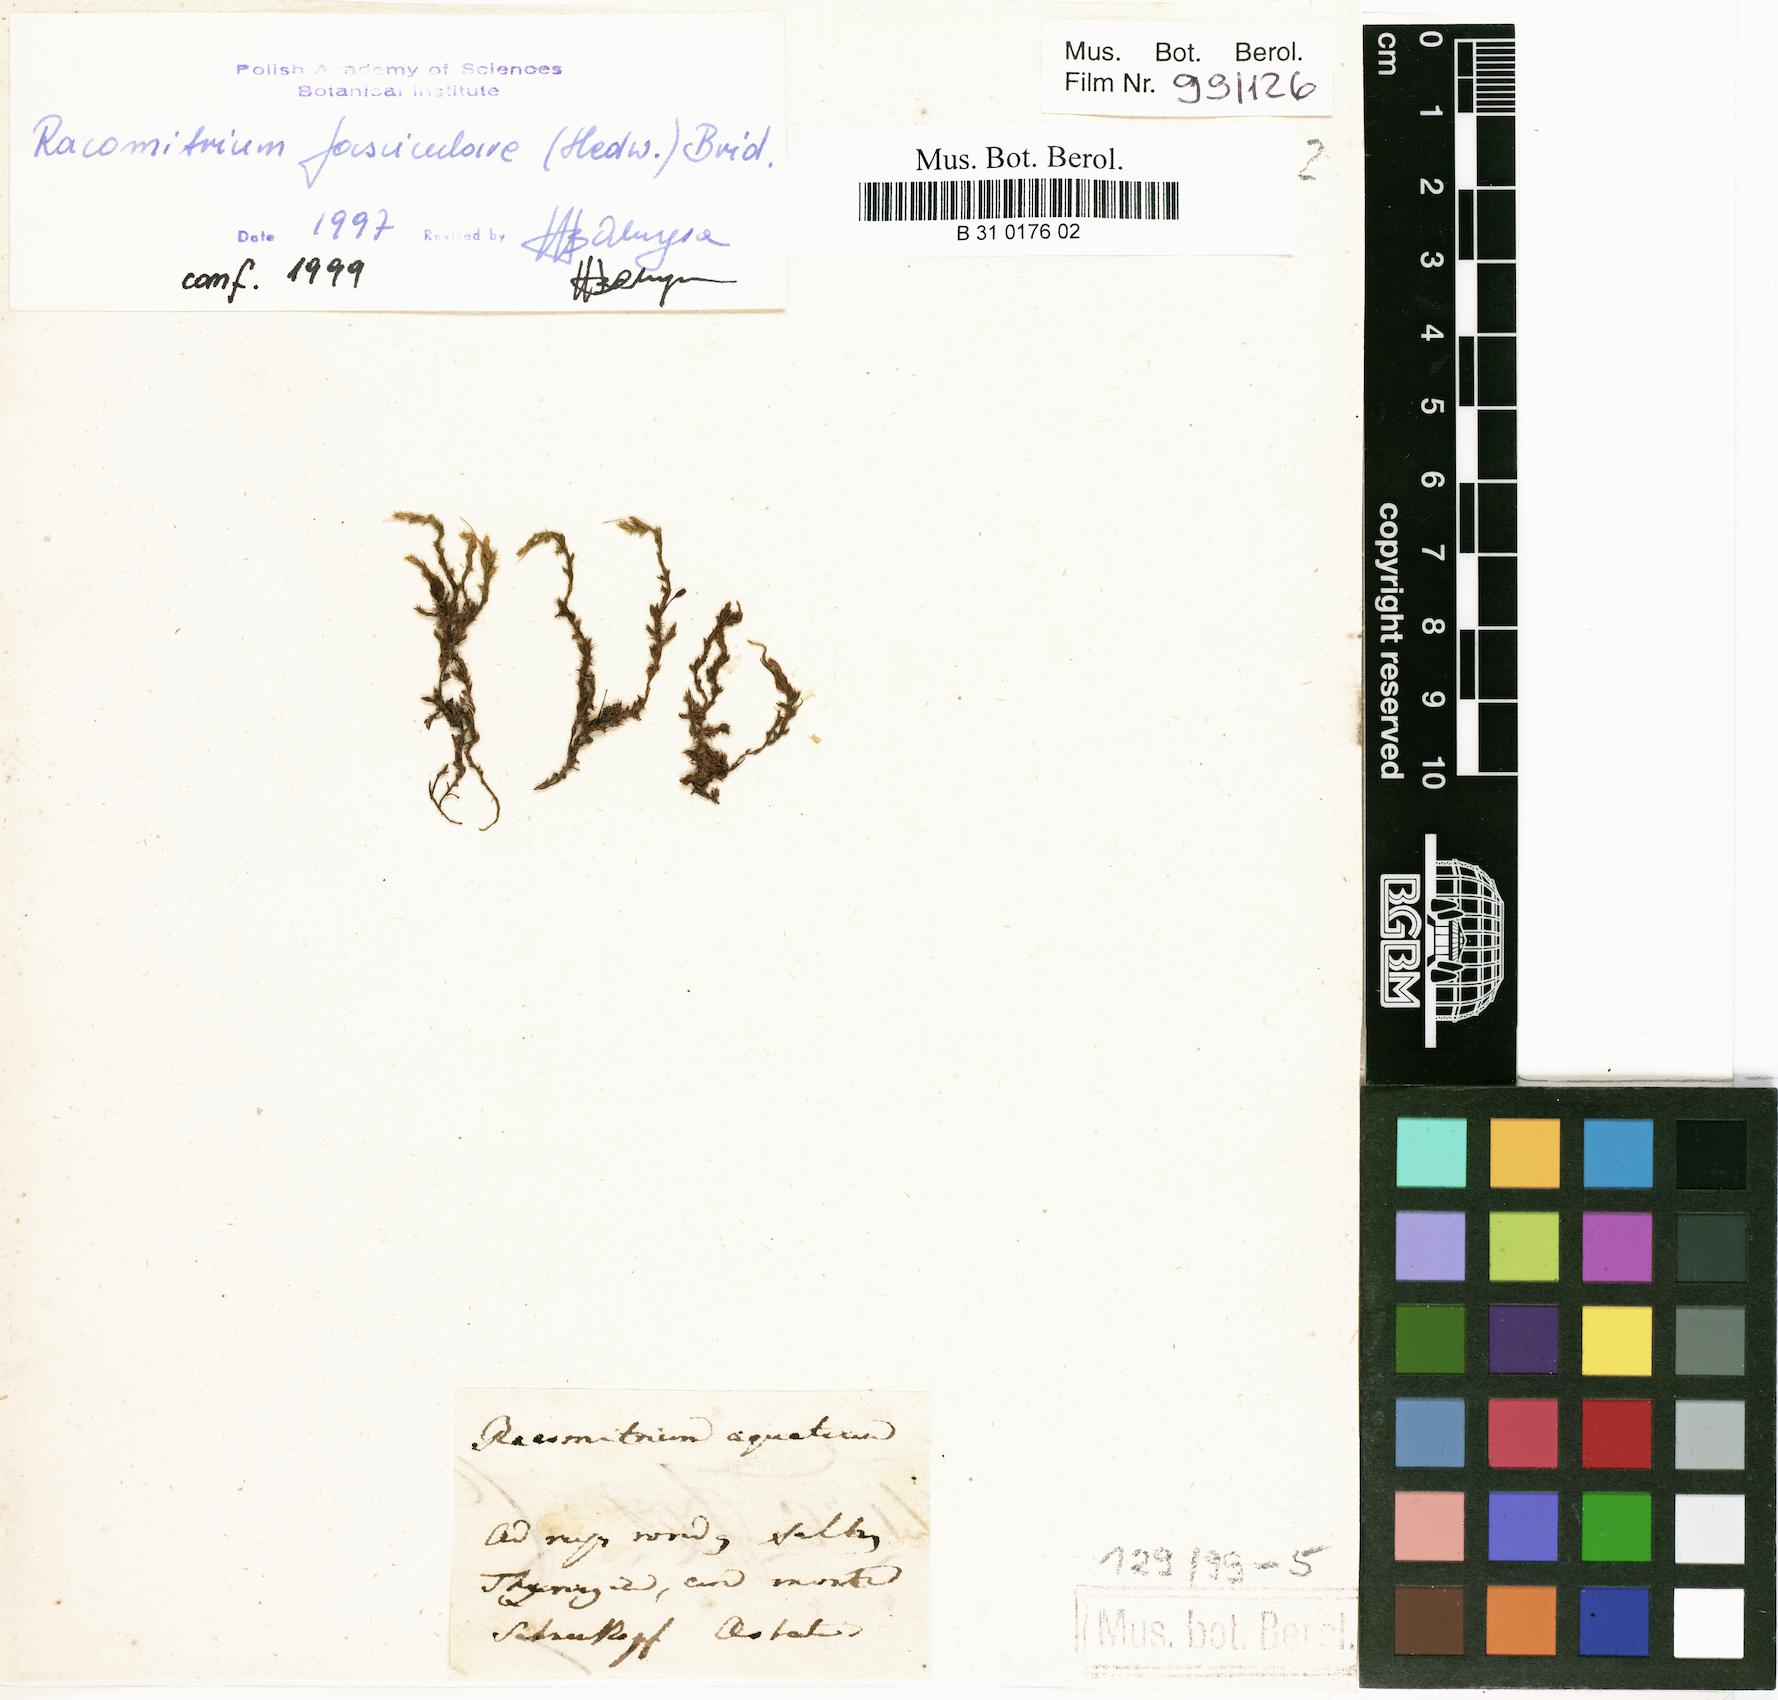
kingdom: Plantae
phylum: Bryophyta
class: Bryopsida
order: Grimmiales
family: Grimmiaceae
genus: Codriophorus
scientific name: Codriophorus aquaticus
